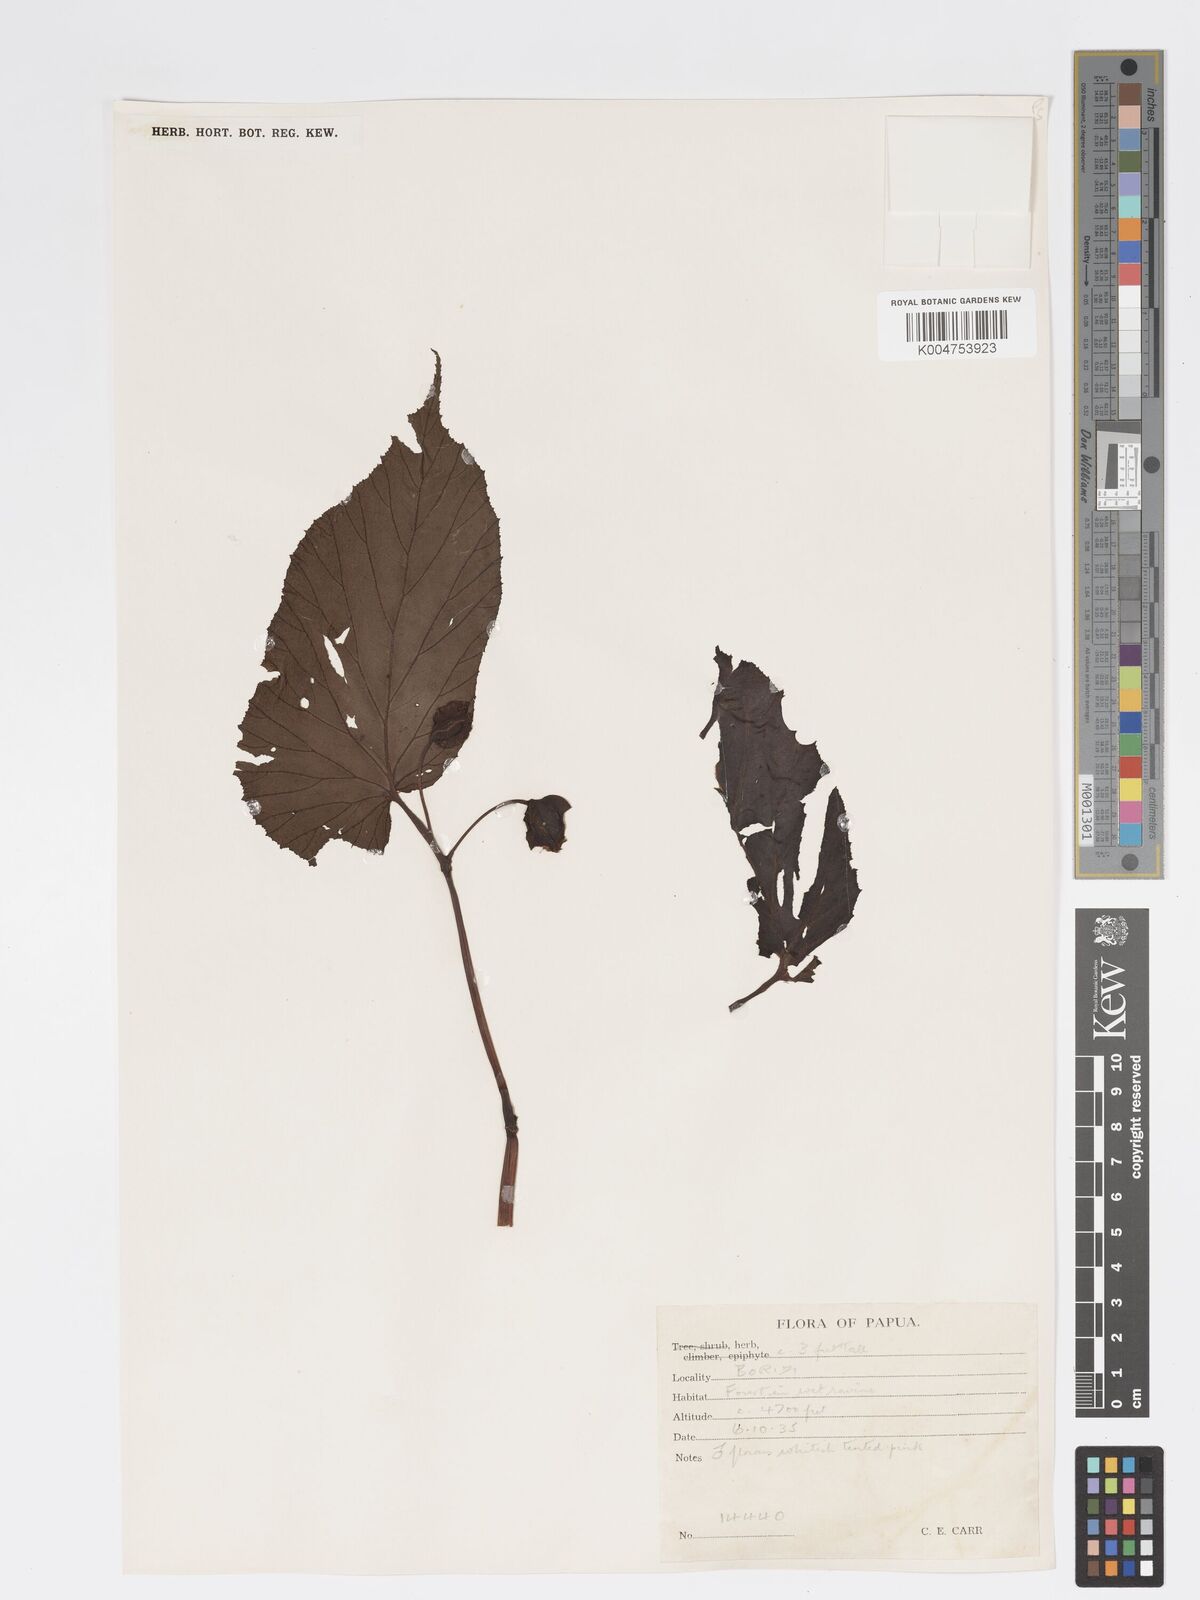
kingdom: Plantae
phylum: Tracheophyta
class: Magnoliopsida
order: Cucurbitales
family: Begoniaceae
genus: Begonia
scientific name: Begonia wollastonii
